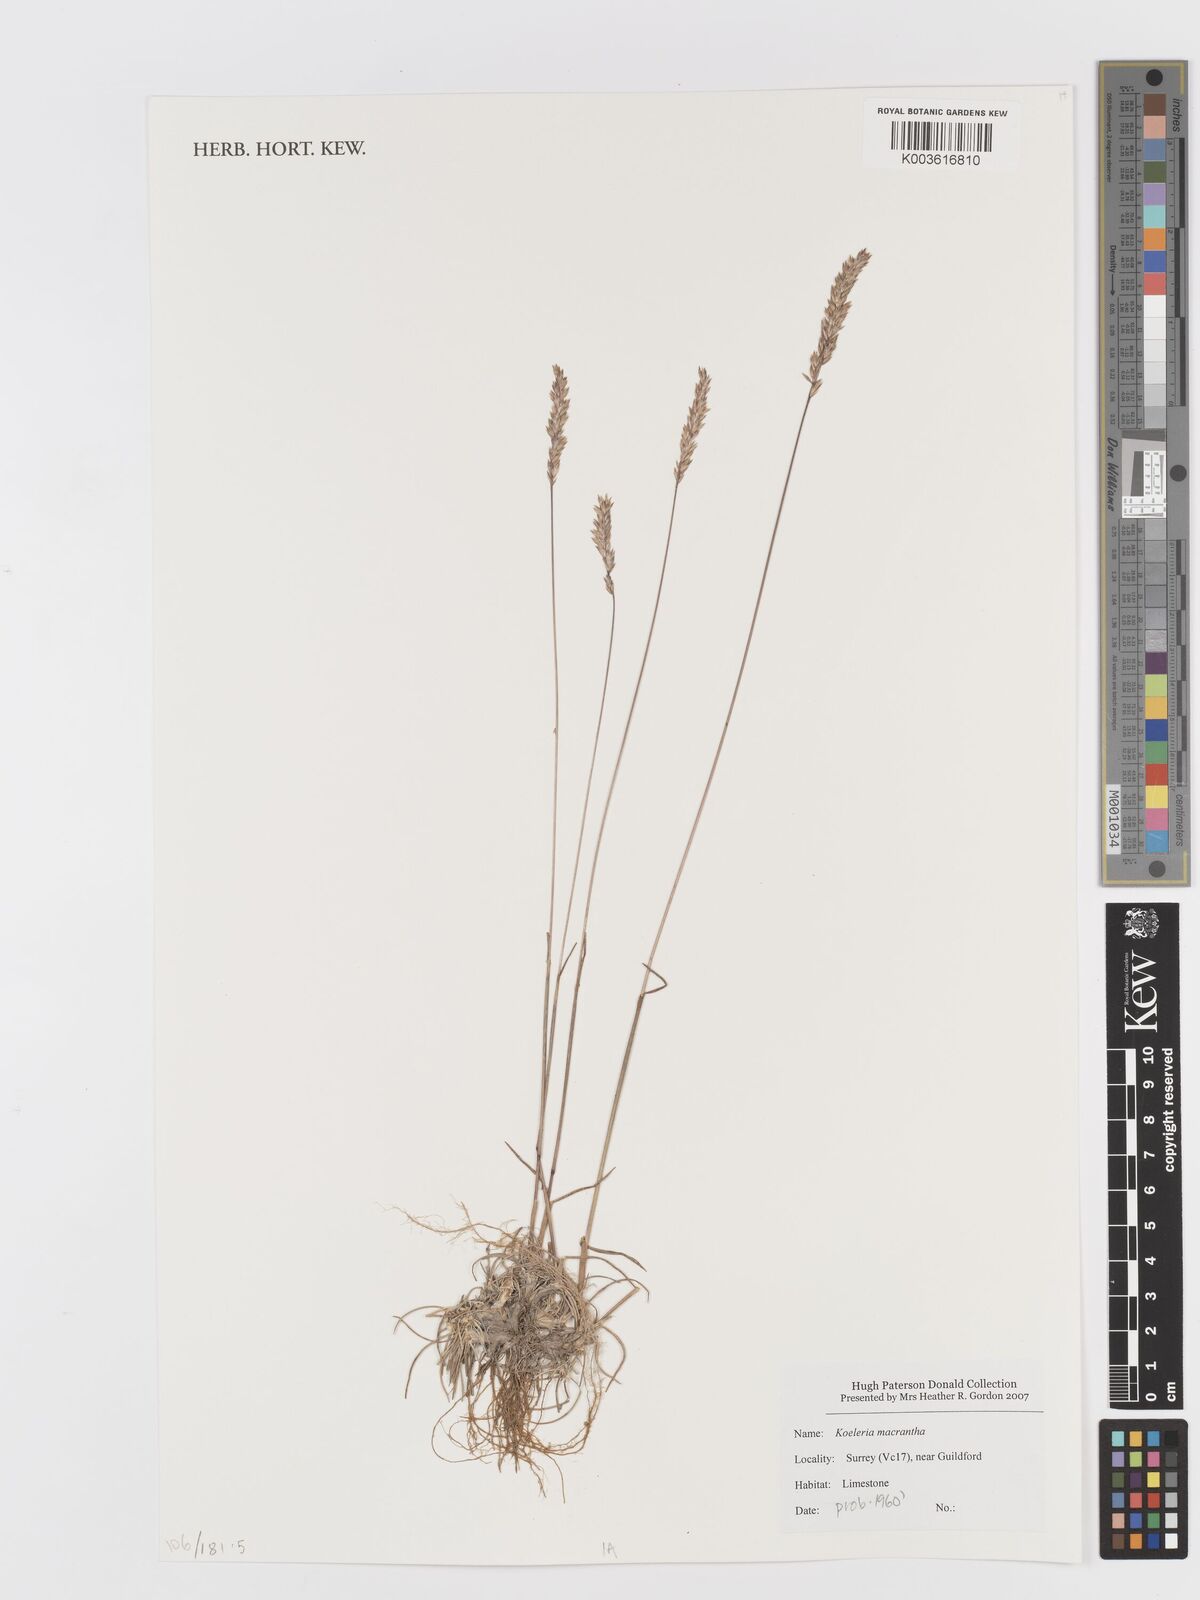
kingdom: Plantae
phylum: Tracheophyta
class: Liliopsida
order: Poales
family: Poaceae
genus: Koeleria
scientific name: Koeleria macrantha
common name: Crested hair-grass
